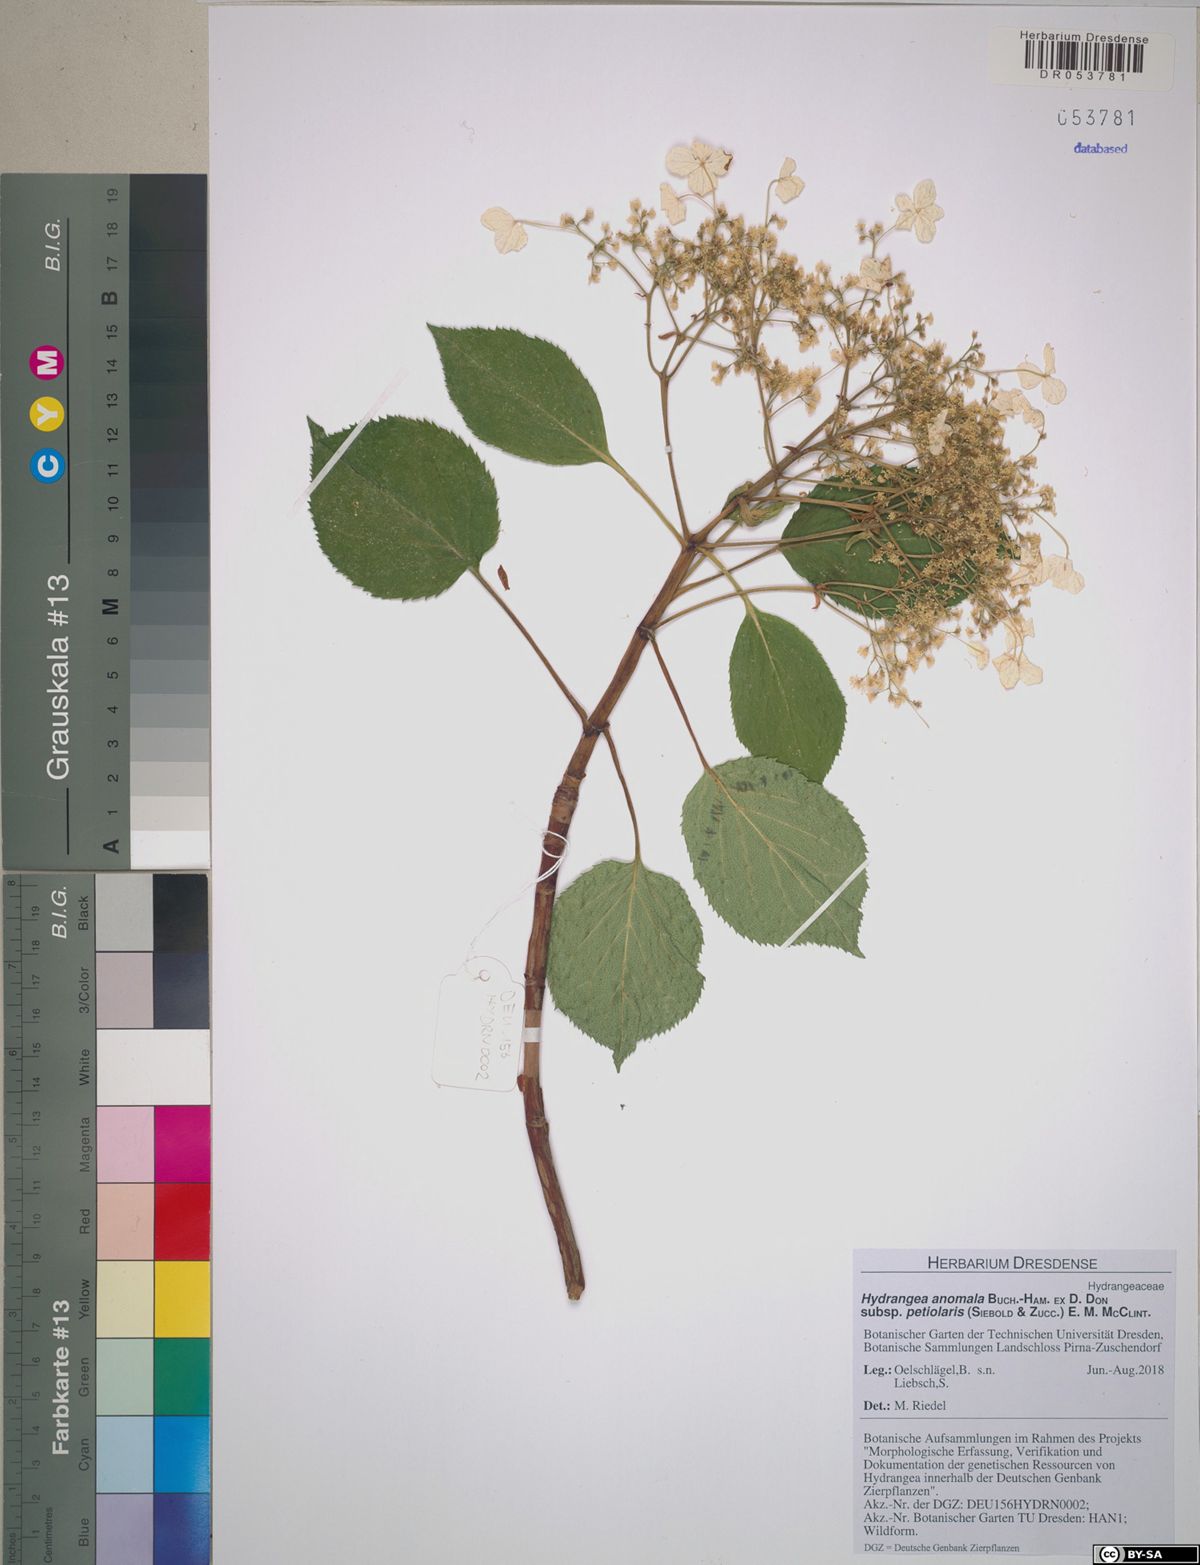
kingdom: Plantae
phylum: Tracheophyta
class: Magnoliopsida
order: Cornales
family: Hydrangeaceae
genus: Hydrangea
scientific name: Hydrangea petiolaris
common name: Japanese climbing hydrangea
